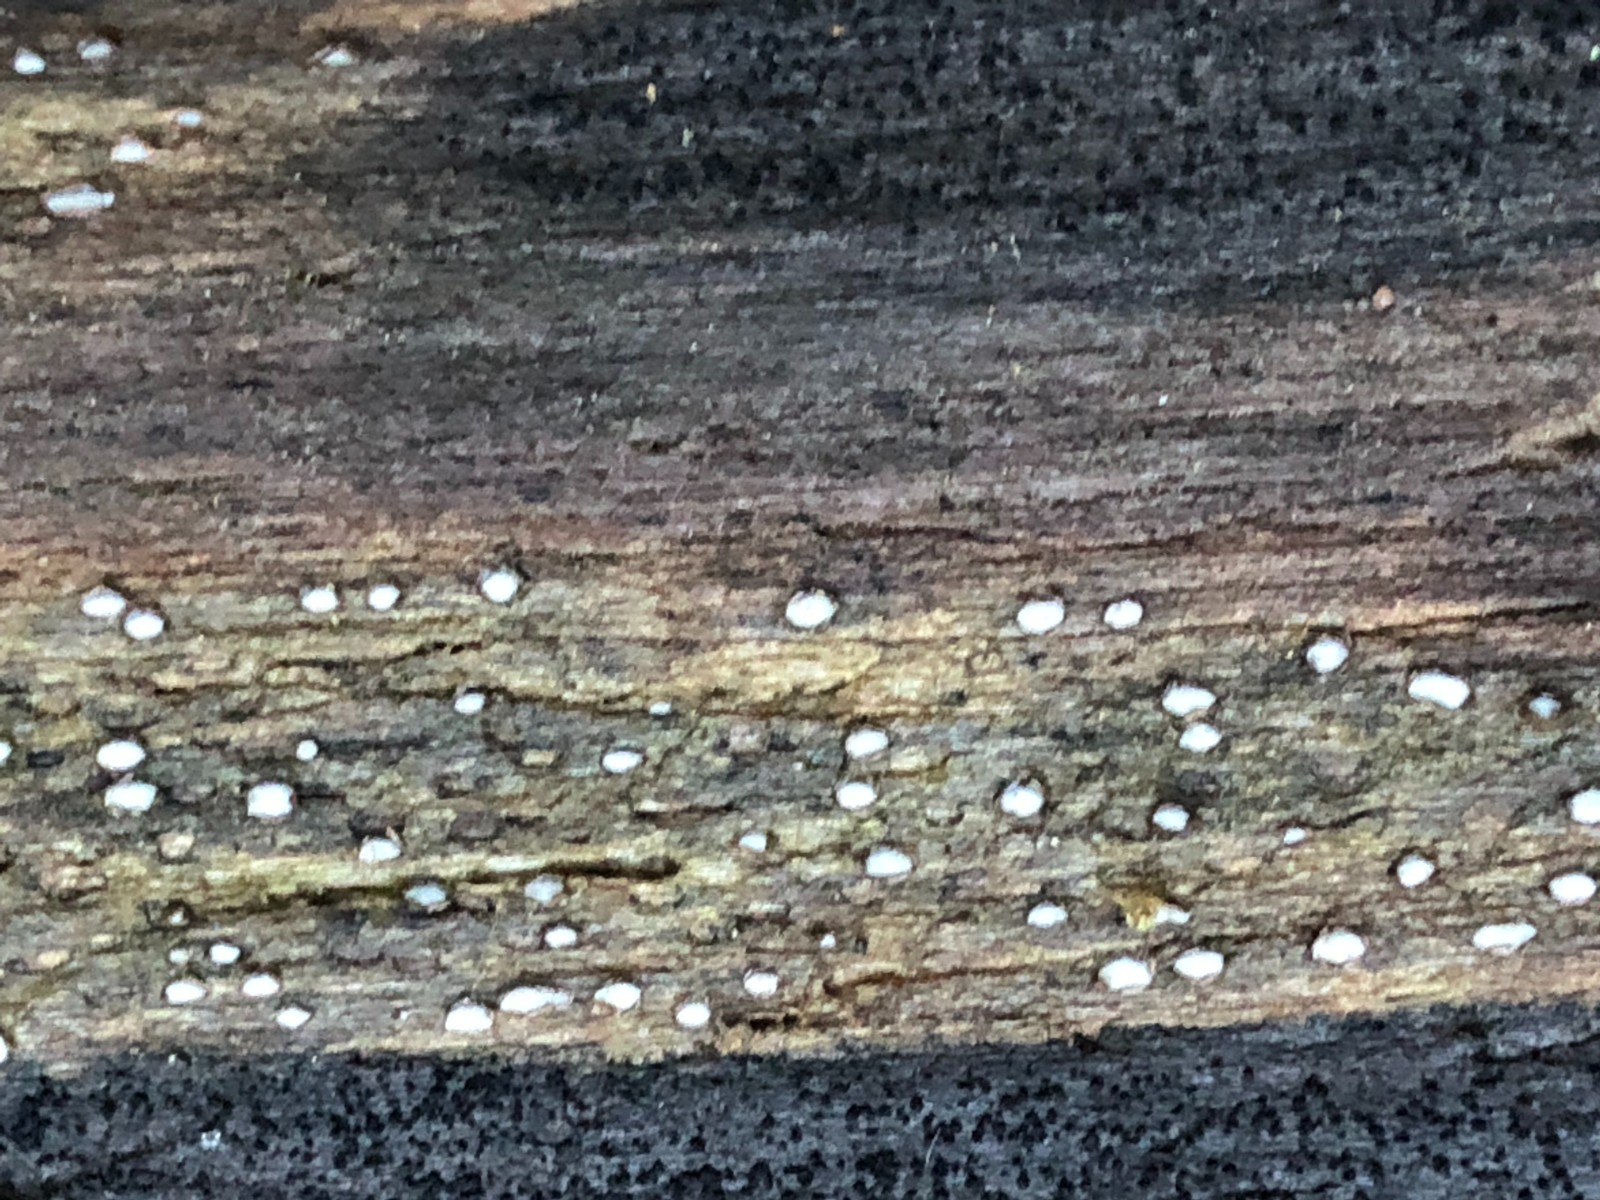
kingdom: Fungi
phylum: Ascomycota
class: Leotiomycetes
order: Chaetomellales
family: Marthamycetaceae
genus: Propolis
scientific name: Propolis farinosa
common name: almindelig vedsprængerskive
